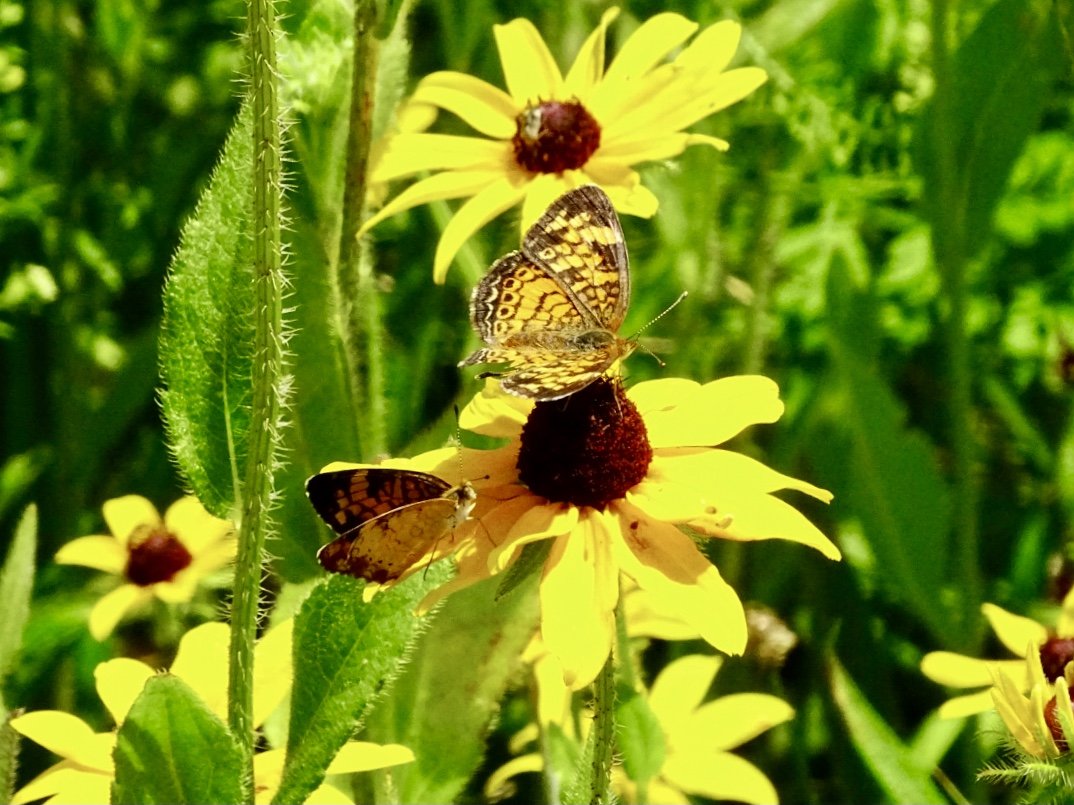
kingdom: Animalia
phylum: Arthropoda
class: Insecta
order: Lepidoptera
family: Nymphalidae
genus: Phyciodes
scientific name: Phyciodes tharos
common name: Pearl Crescent
